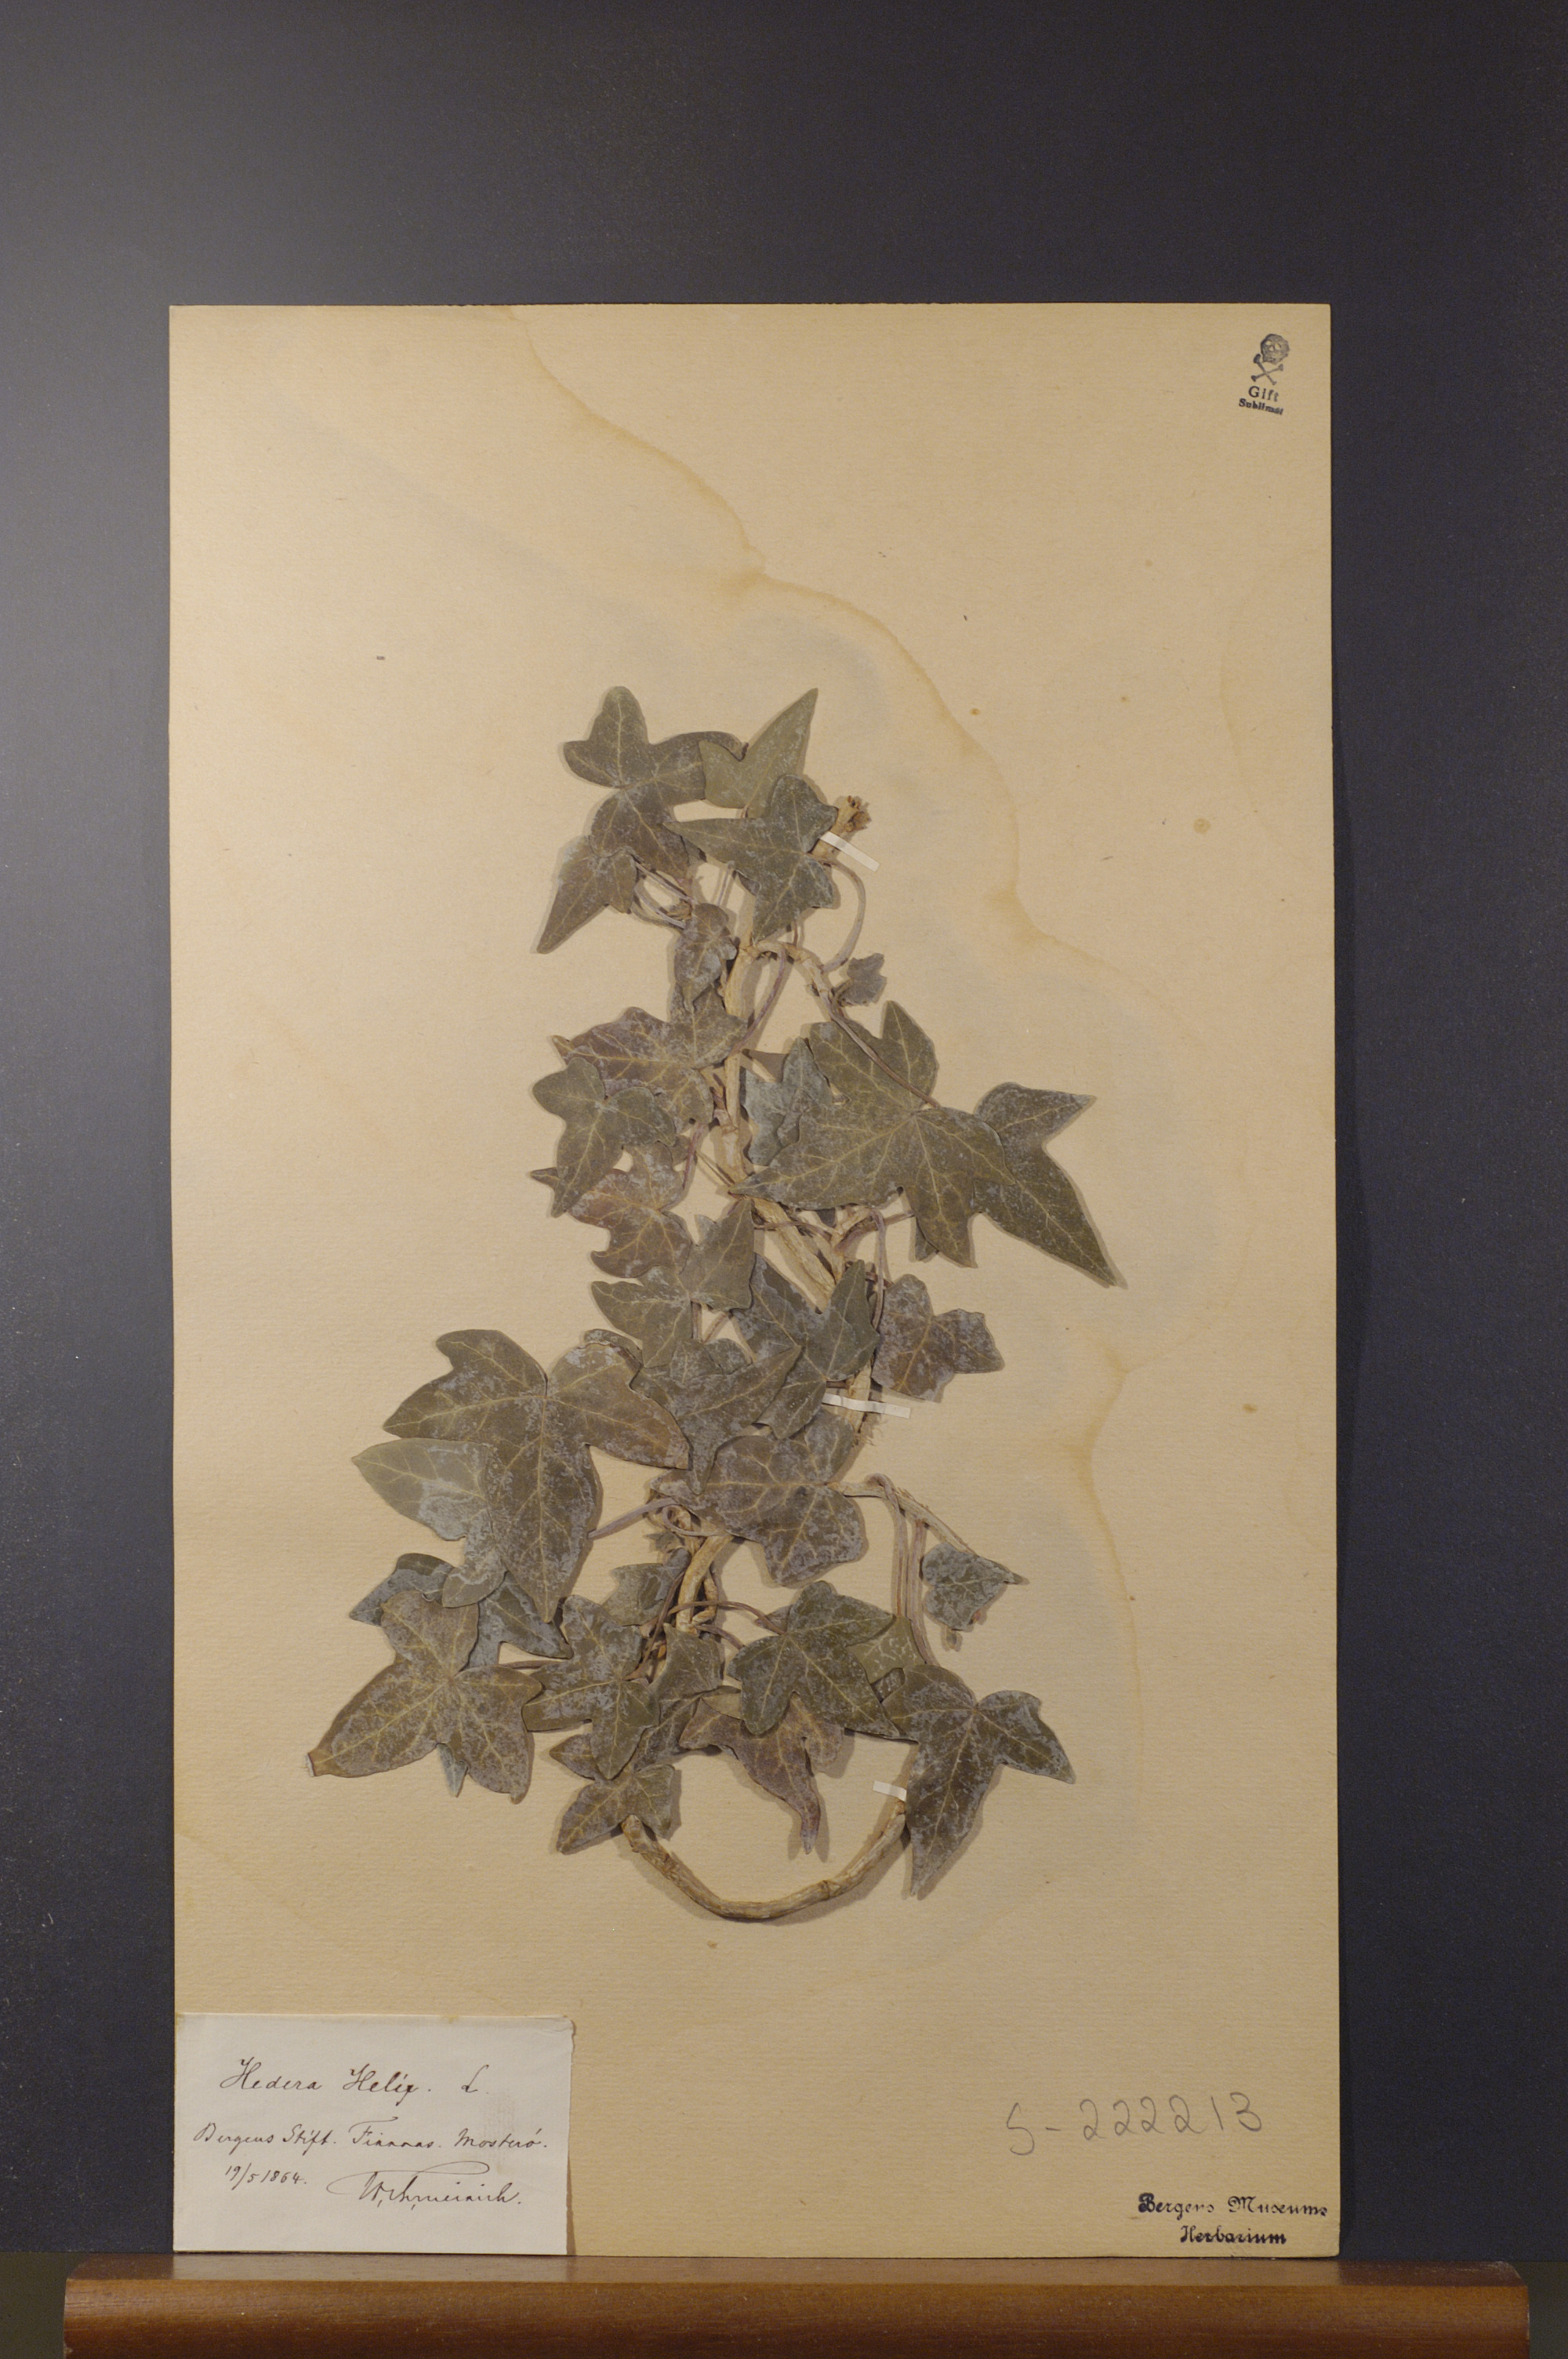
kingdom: Plantae
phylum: Tracheophyta
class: Magnoliopsida
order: Apiales
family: Araliaceae
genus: Hedera
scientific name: Hedera helix
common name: Ivy
